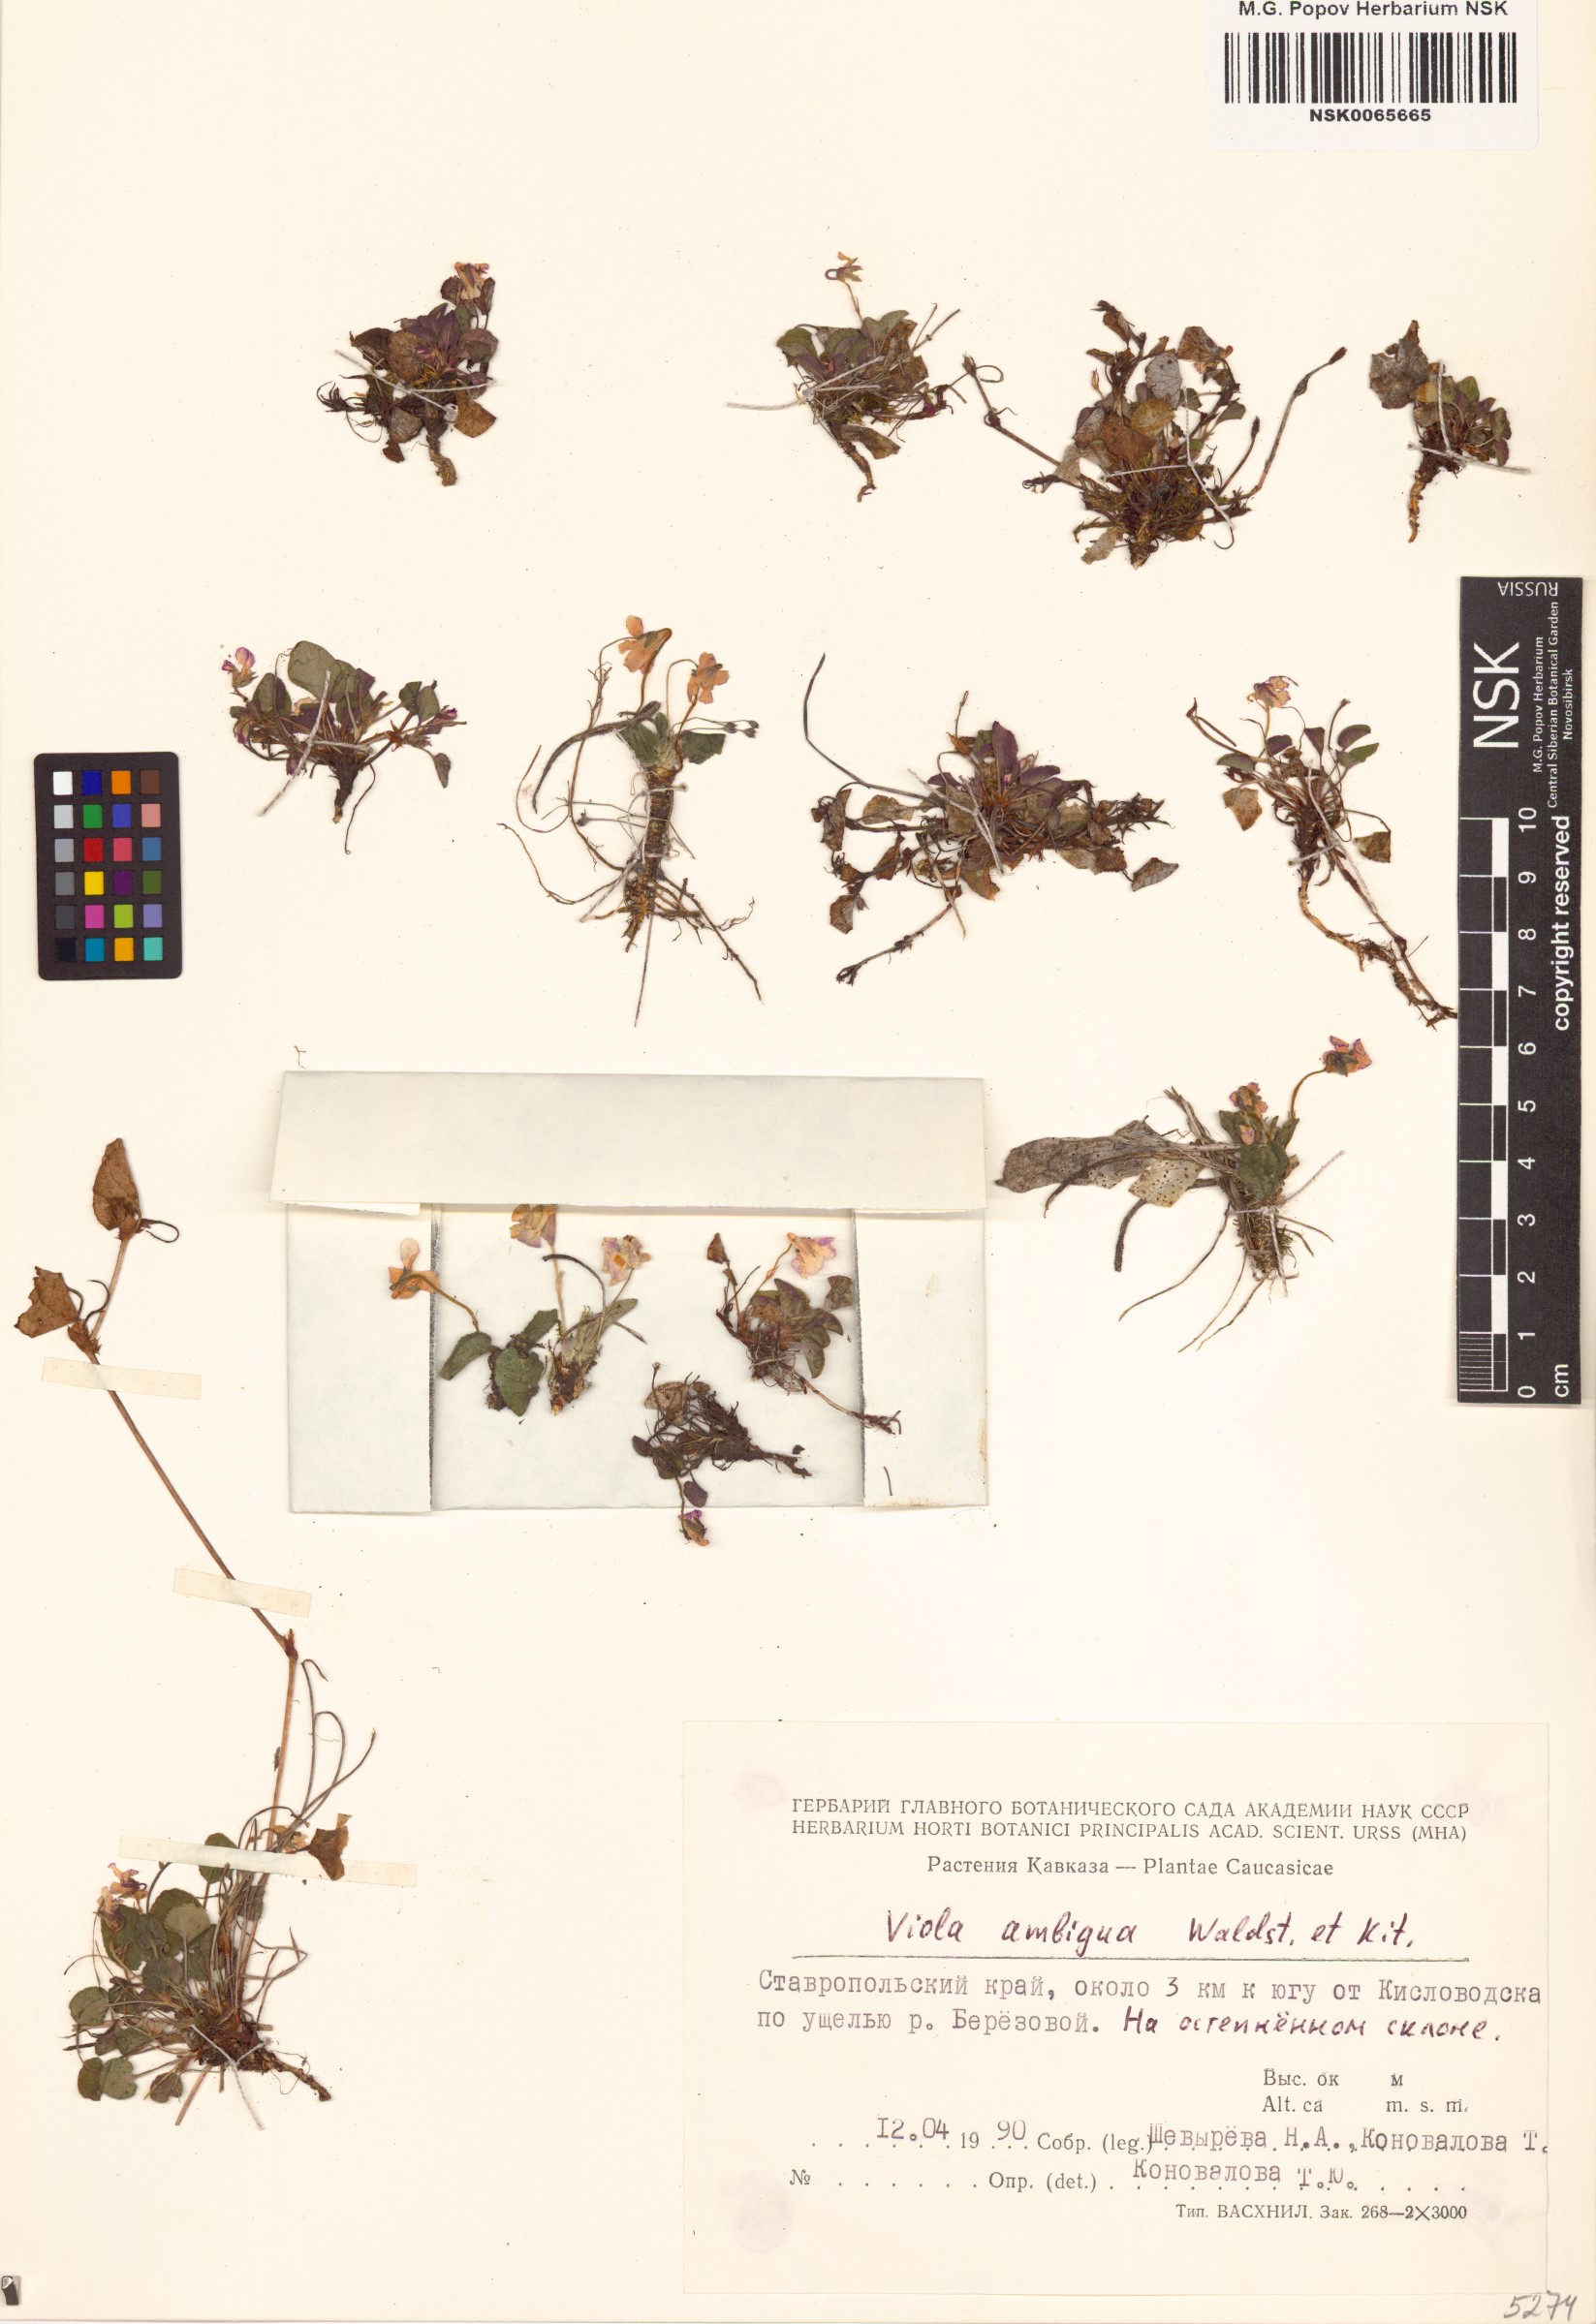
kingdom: Plantae
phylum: Tracheophyta
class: Magnoliopsida
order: Malpighiales
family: Violaceae
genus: Viola
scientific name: Viola ambigua
